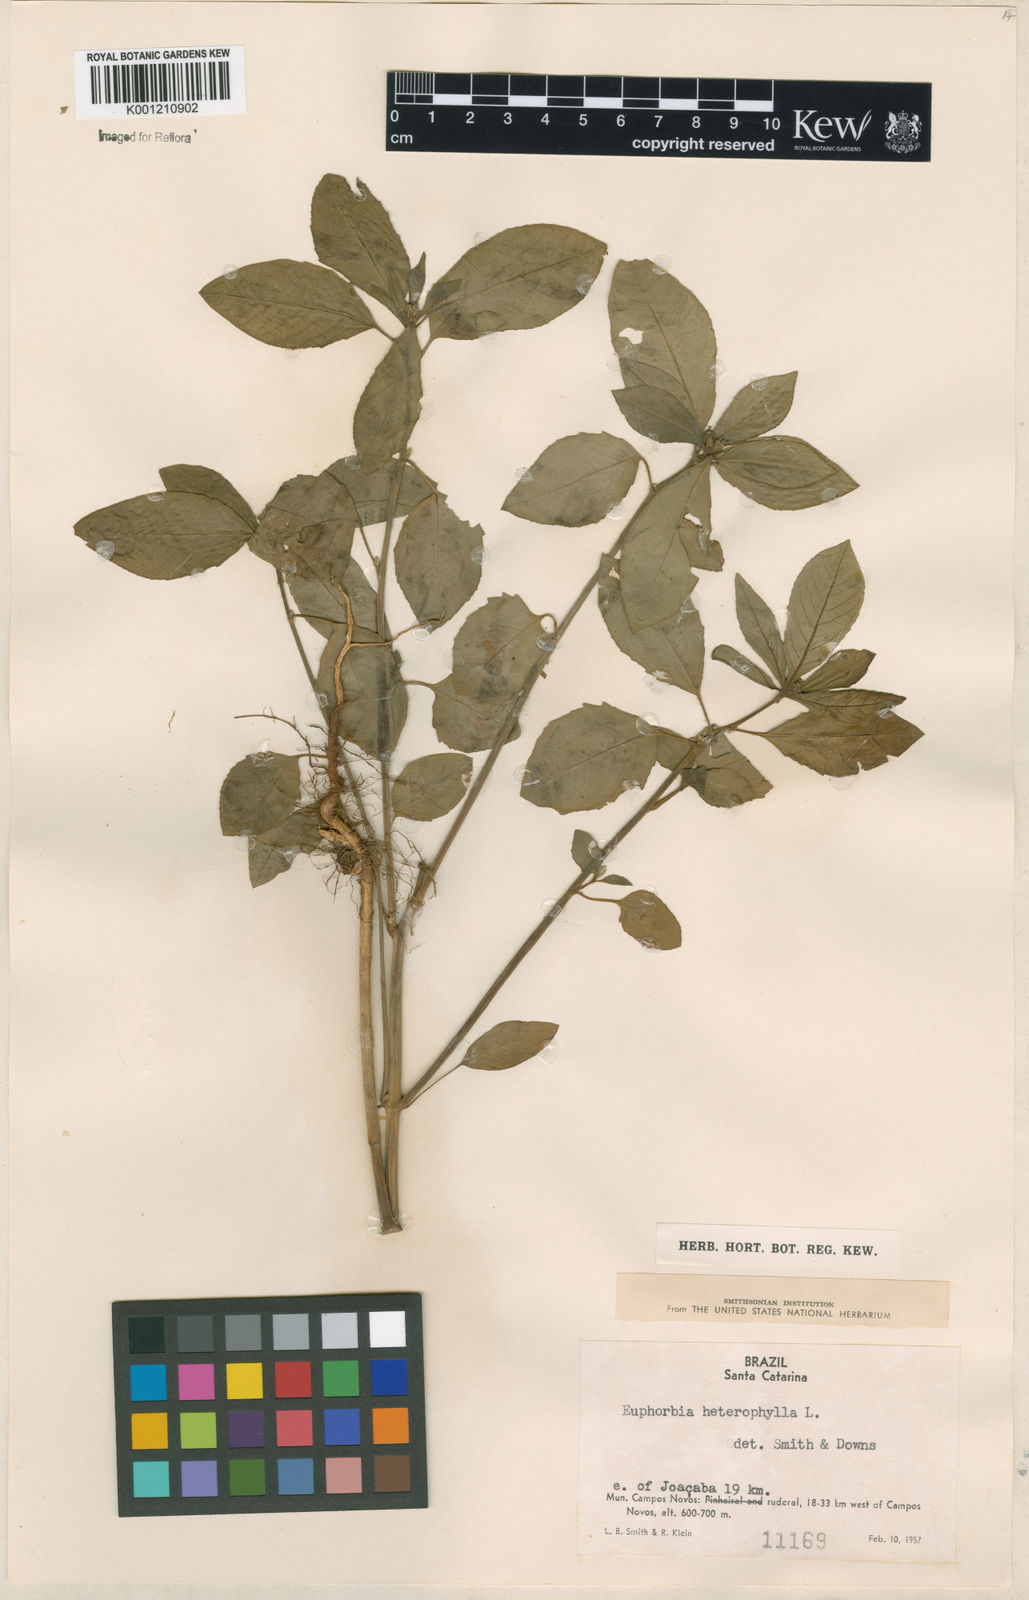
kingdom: Plantae
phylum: Tracheophyta
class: Magnoliopsida
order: Malpighiales
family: Euphorbiaceae
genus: Euphorbia
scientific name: Euphorbia heterophylla
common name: Mexican fireplant
